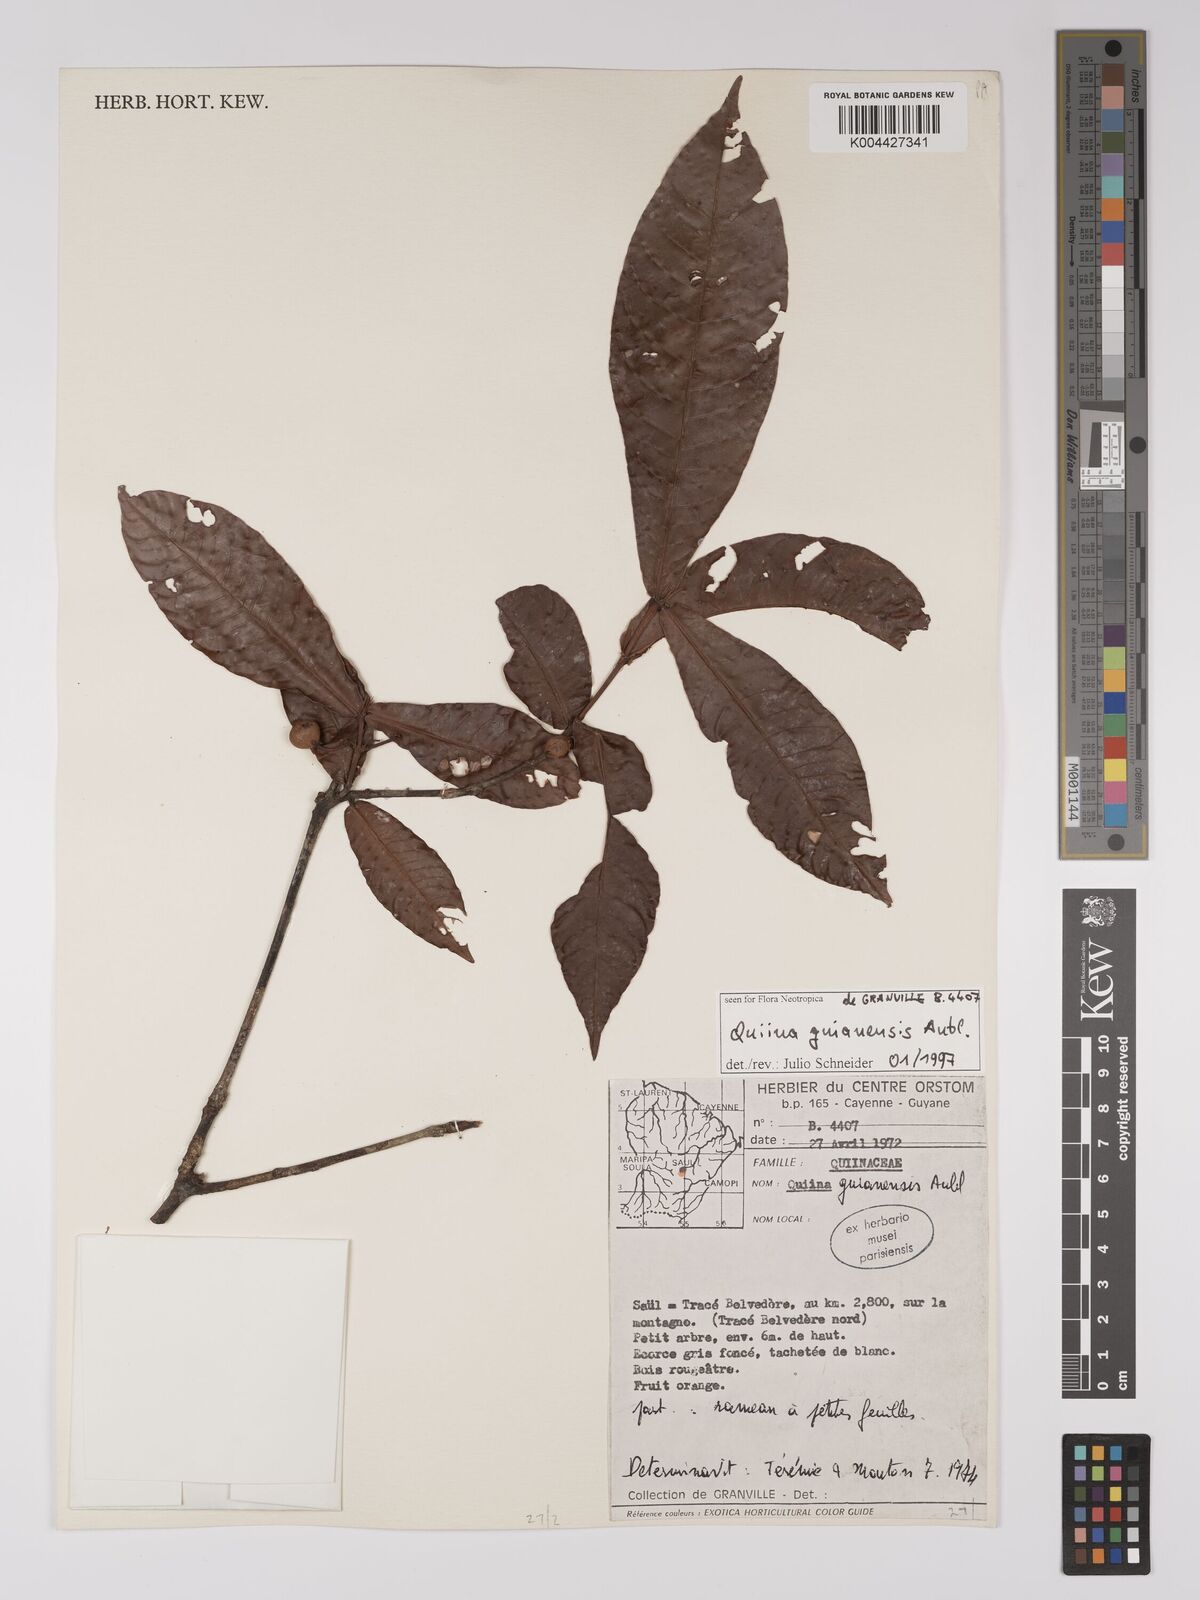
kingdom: Plantae
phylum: Tracheophyta
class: Magnoliopsida
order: Malpighiales
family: Quiinaceae
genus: Quiina
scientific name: Quiina guianensis
